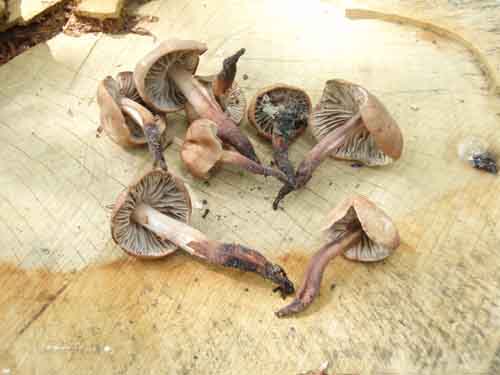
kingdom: Fungi
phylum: Basidiomycota
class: Agaricomycetes
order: Agaricales
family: Omphalotaceae
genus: Gymnopus
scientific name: Gymnopus fusipes
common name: tenstokket fladhat
